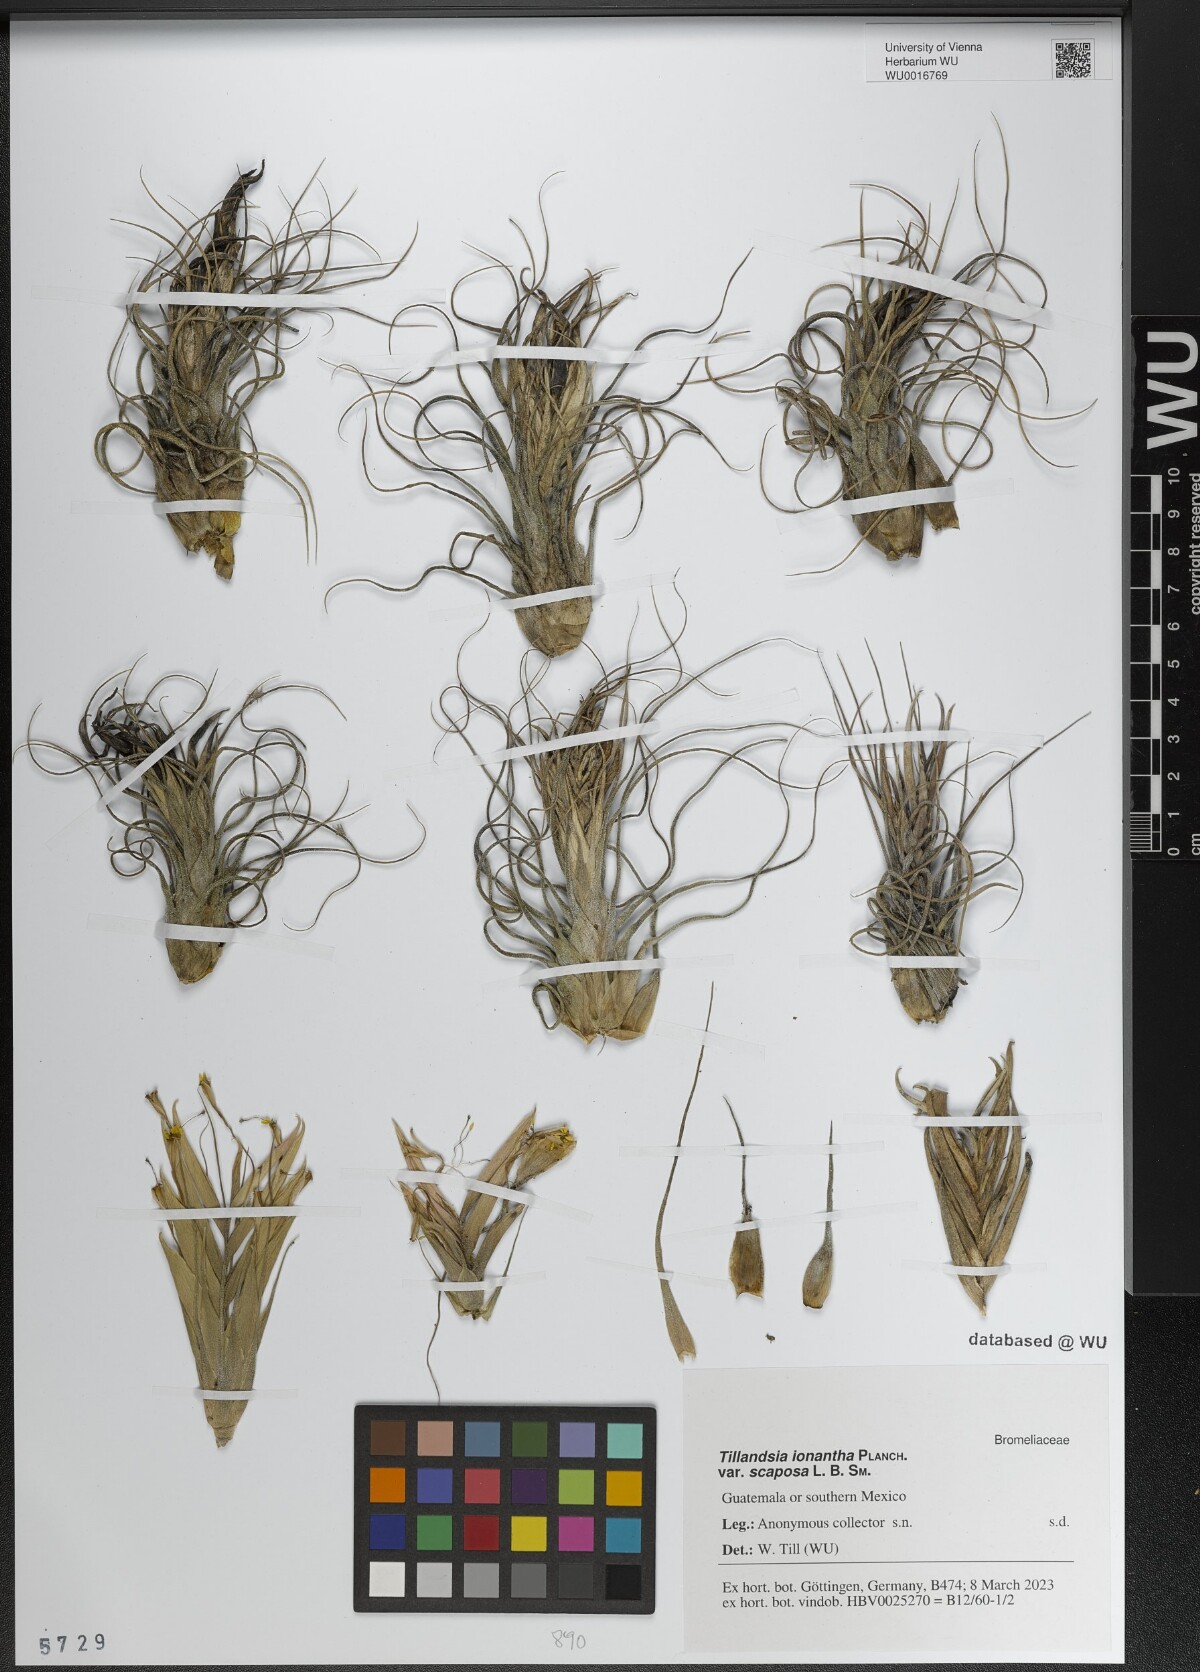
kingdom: Plantae
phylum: Tracheophyta
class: Liliopsida
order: Poales
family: Bromeliaceae
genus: Tillandsia
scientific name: Tillandsia kolbii
